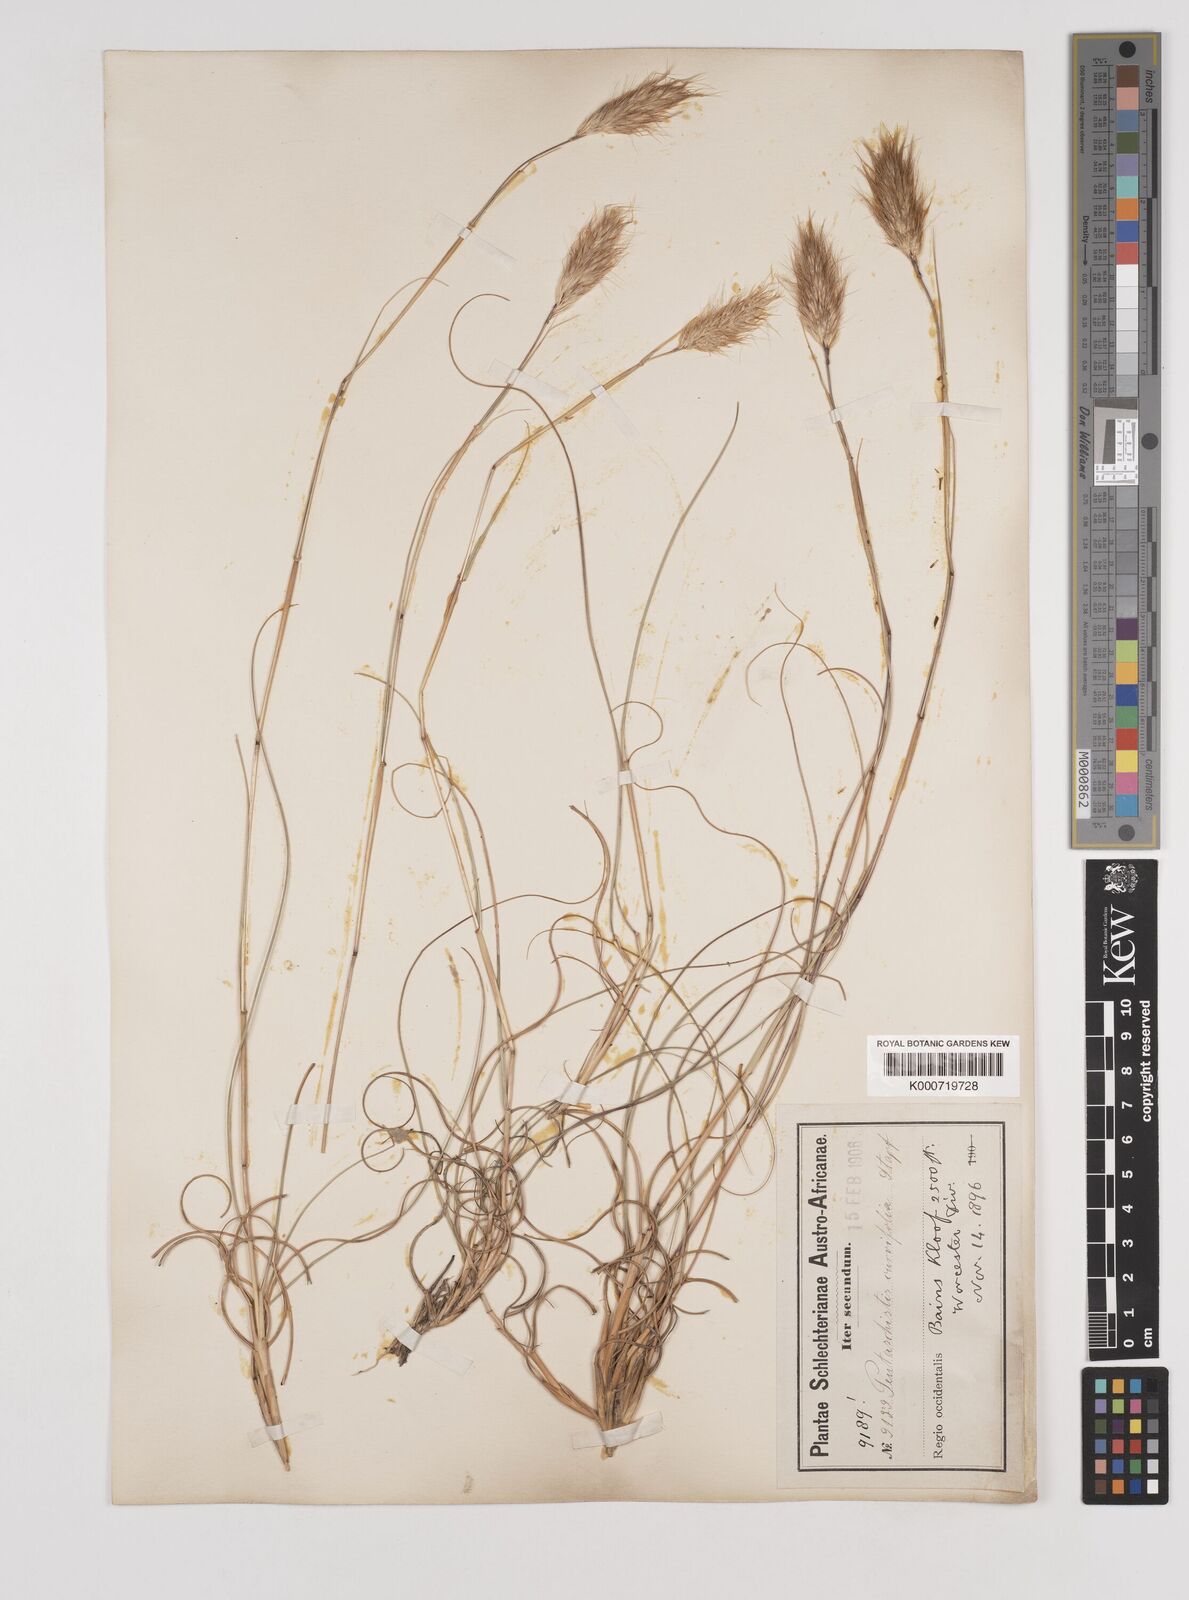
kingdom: Plantae
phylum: Tracheophyta
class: Liliopsida
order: Poales
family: Poaceae
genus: Pentameris
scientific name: Pentameris curvifolia
